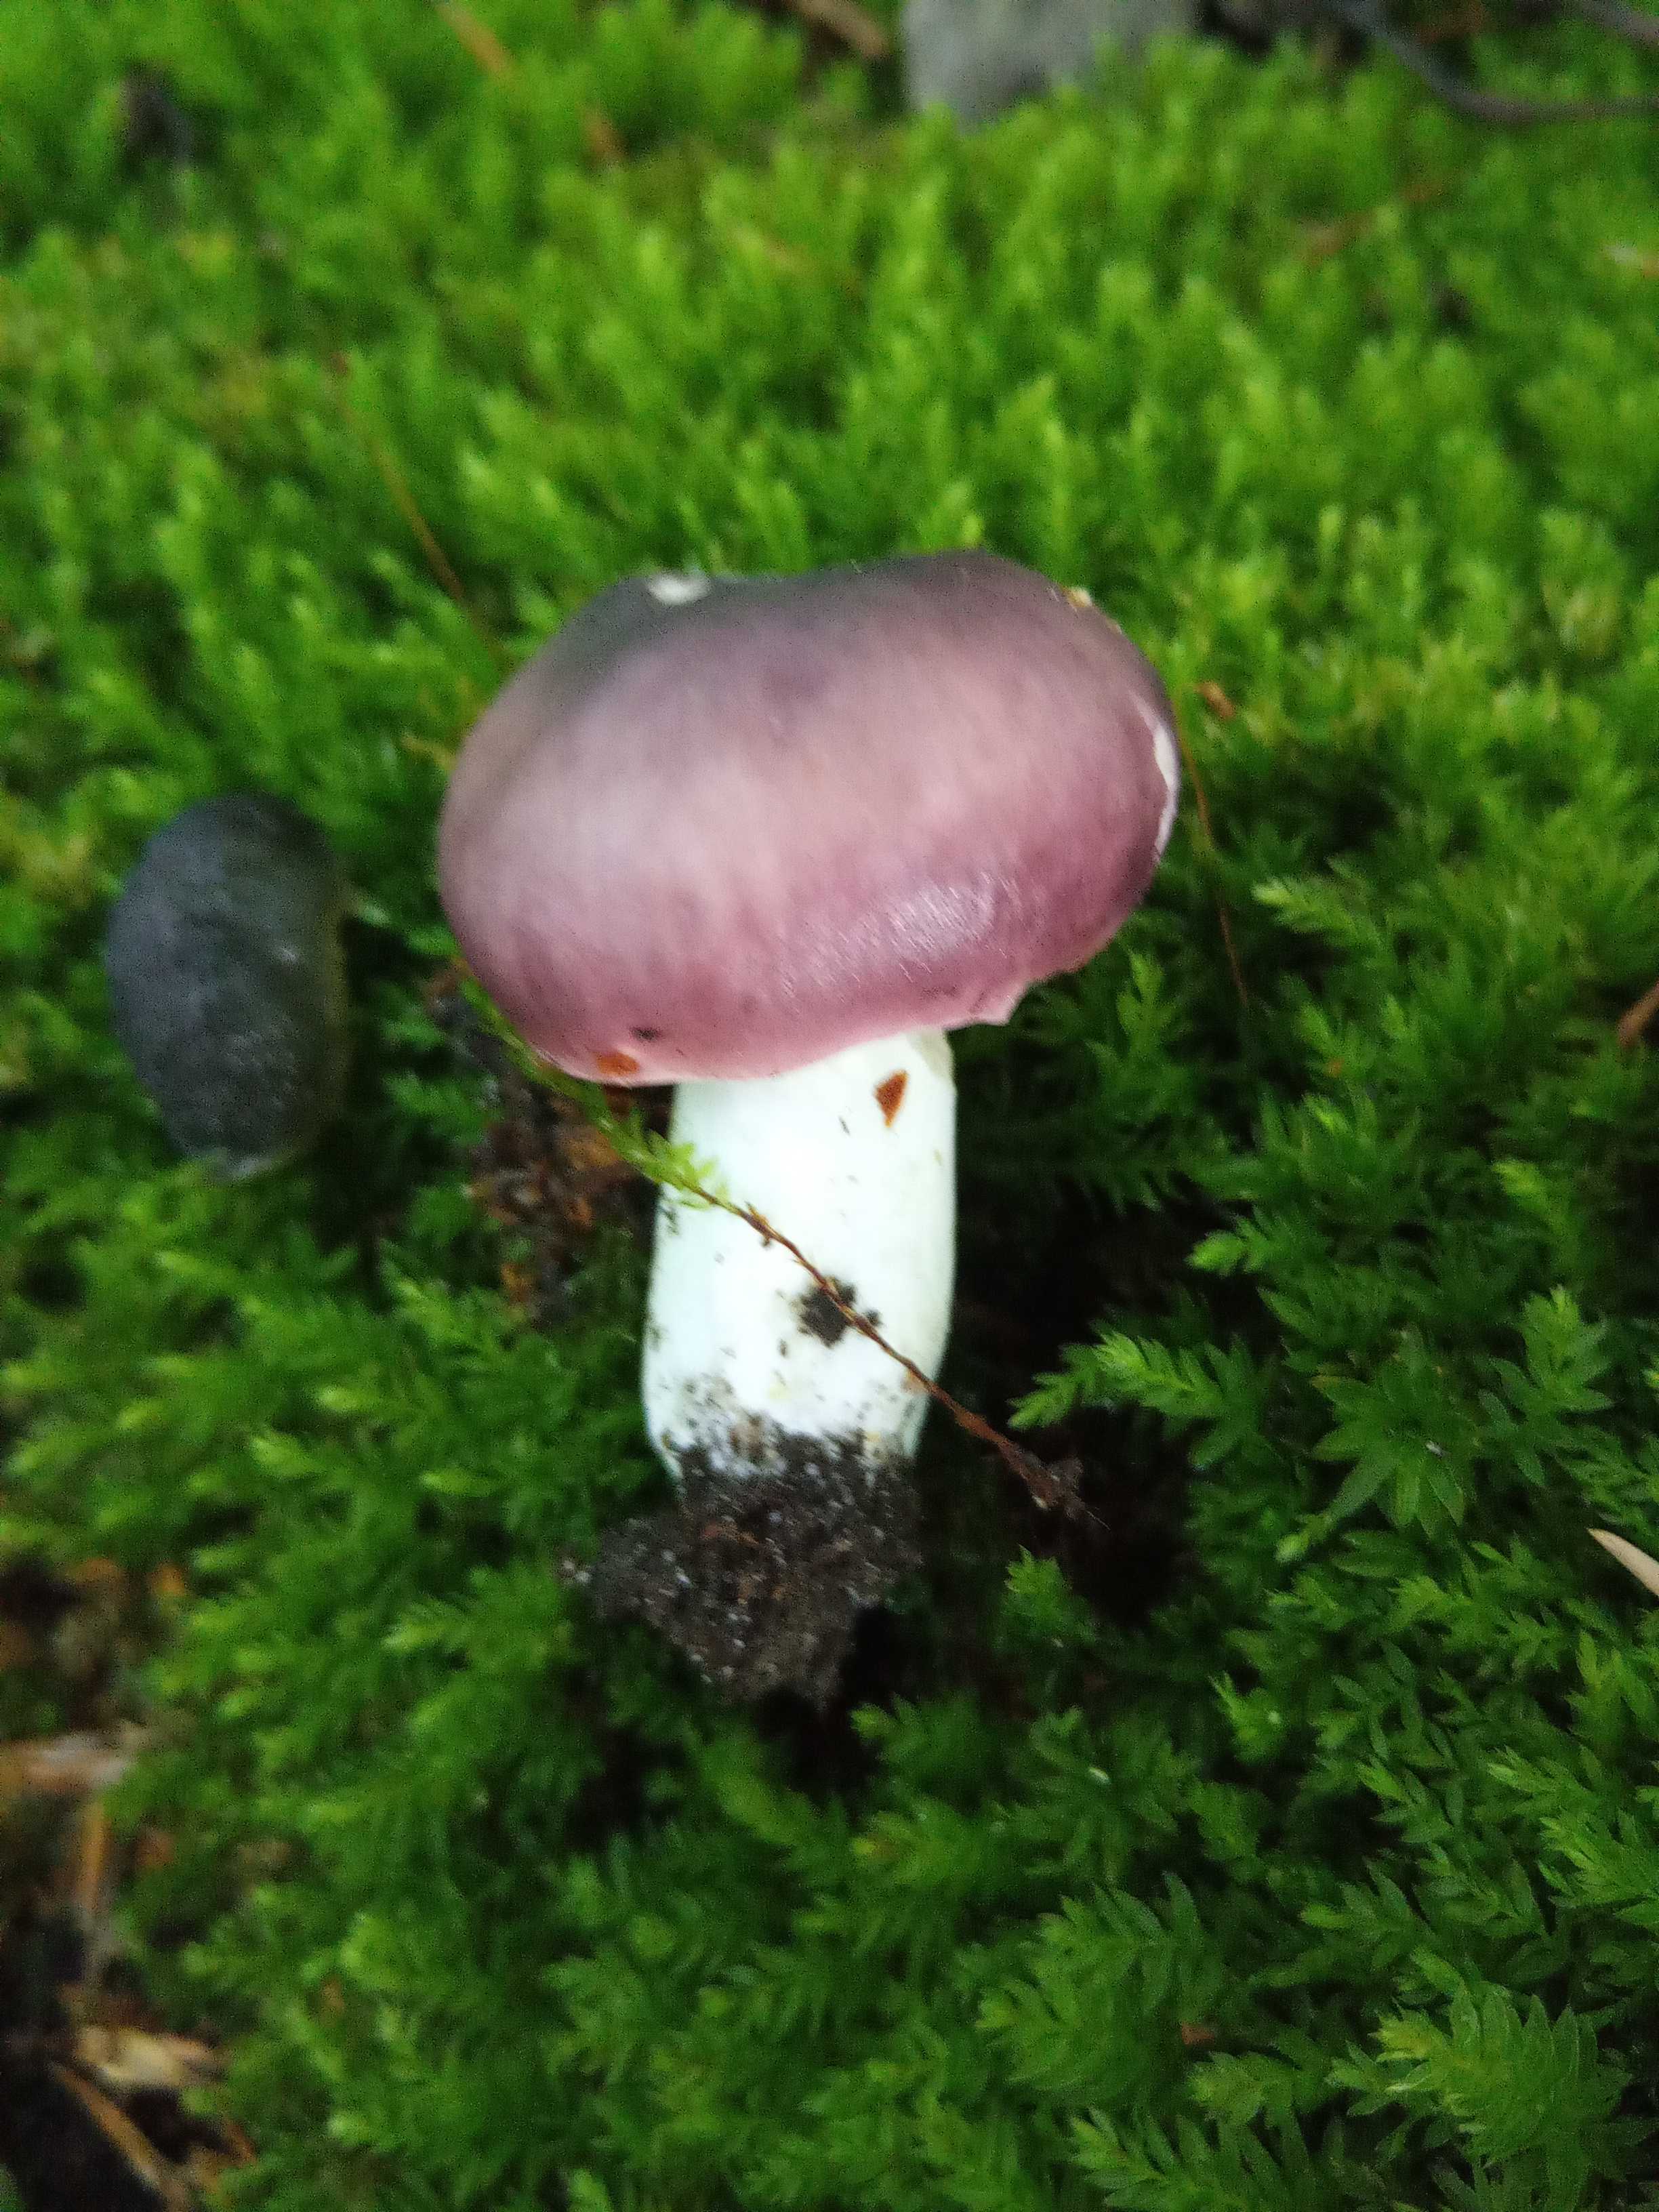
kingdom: Fungi
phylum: Basidiomycota
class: Agaricomycetes
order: Russulales
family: Russulaceae
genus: Russula
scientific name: Russula cyanoxantha
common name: broget skørhat
